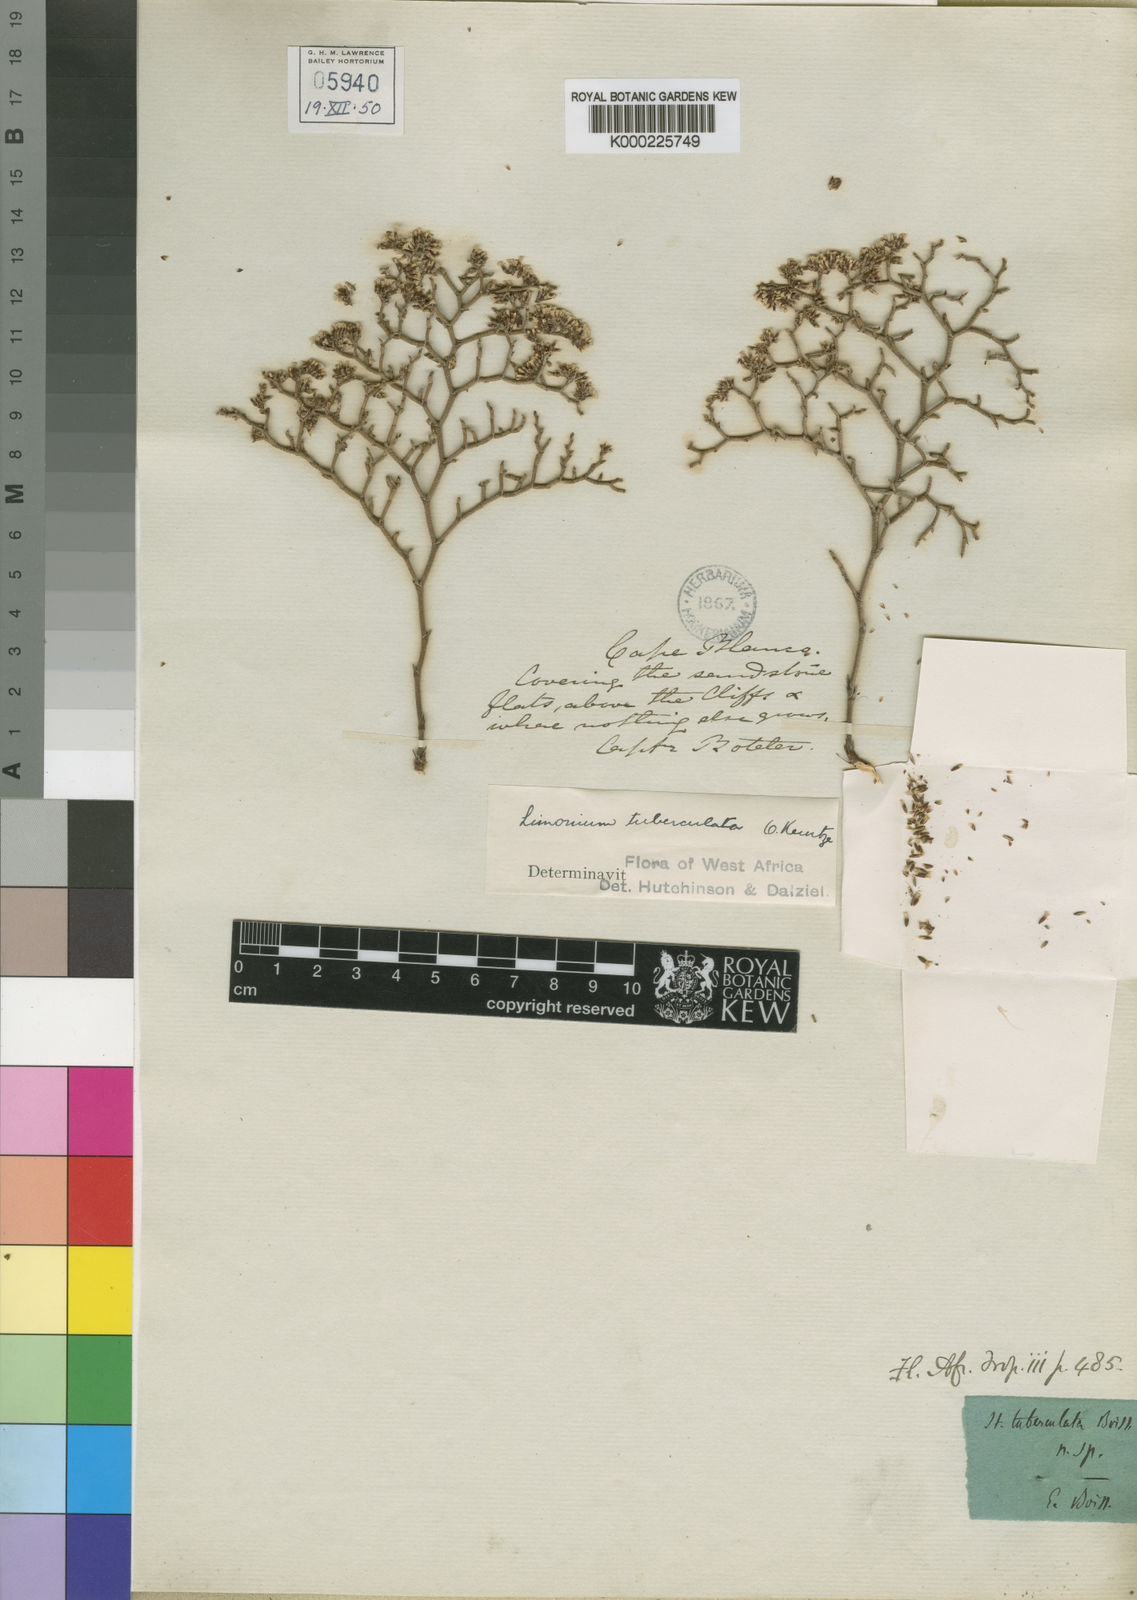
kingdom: Plantae
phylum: Tracheophyta
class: Magnoliopsida
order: Caryophyllales
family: Plumbaginaceae
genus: Limonium
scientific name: Limonium tuberculatum
